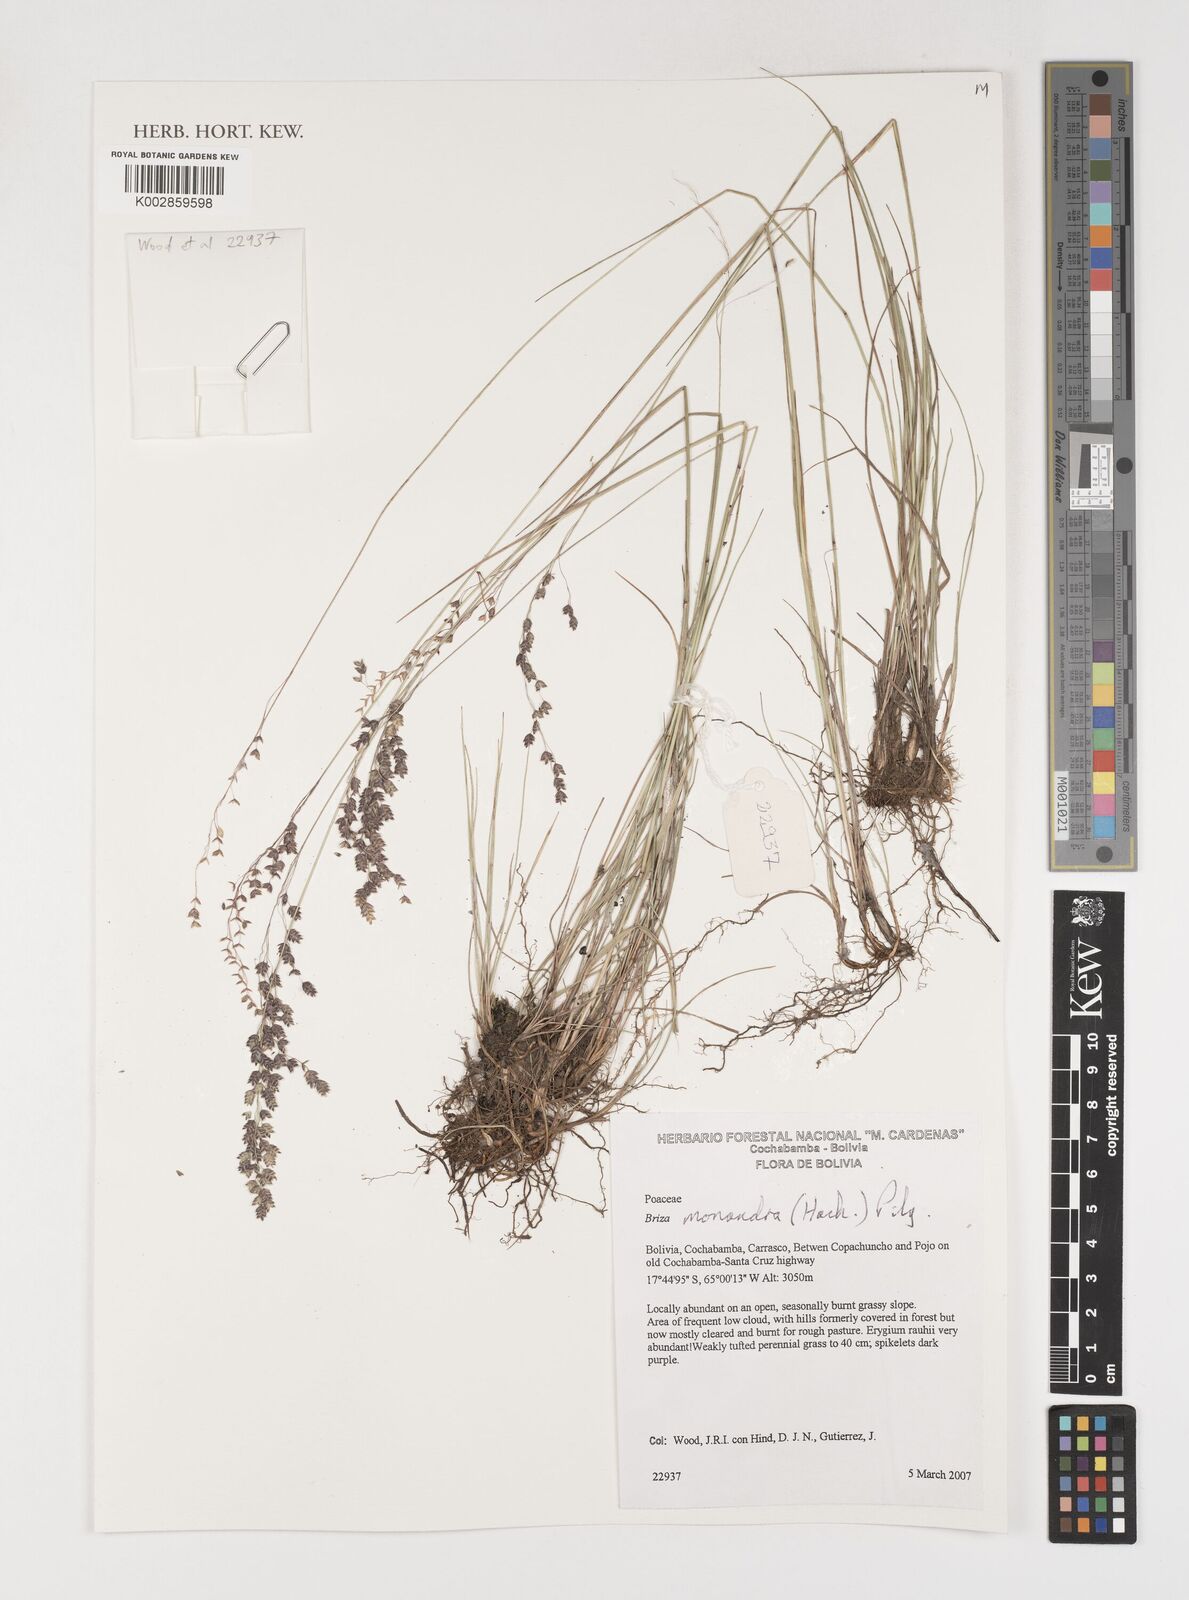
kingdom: Plantae
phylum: Tracheophyta
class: Liliopsida
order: Poales
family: Poaceae
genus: Poidium
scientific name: Poidium monandrum
